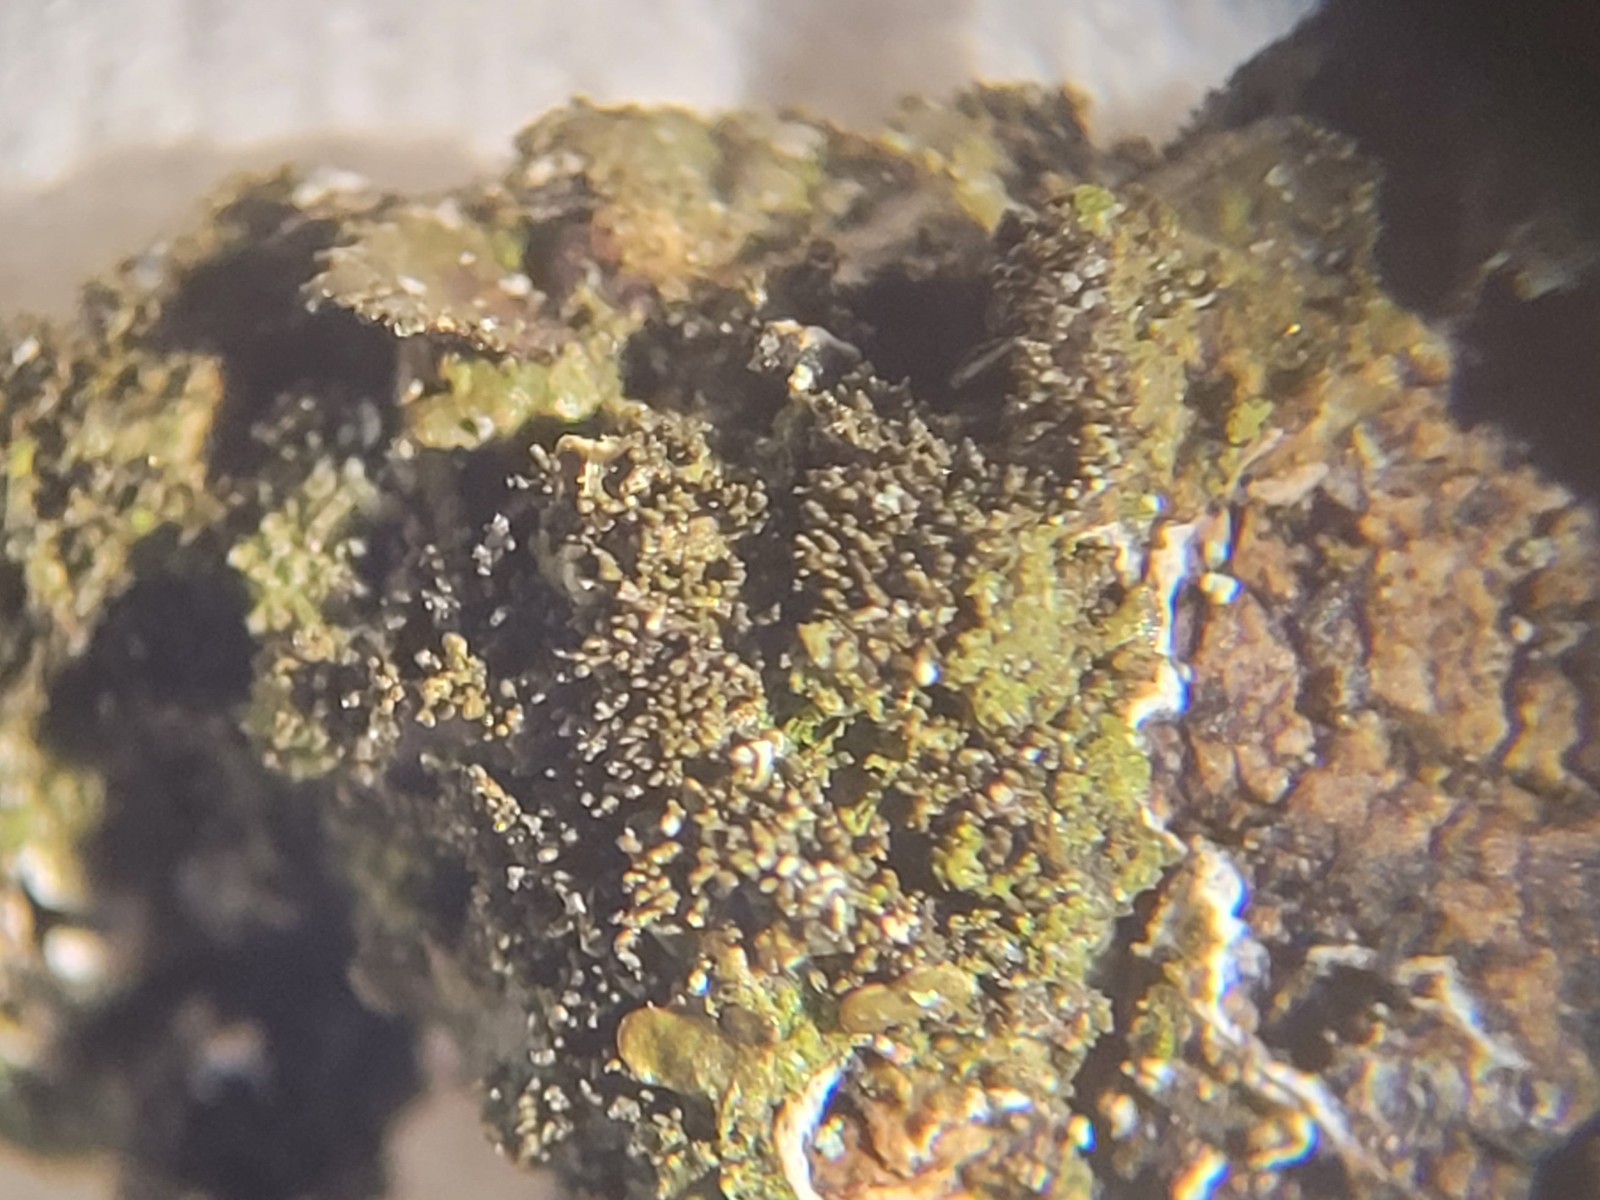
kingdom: Fungi
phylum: Ascomycota
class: Lecanoromycetes
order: Lecanorales
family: Parmeliaceae
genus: Melanohalea
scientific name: Melanohalea exasperatula
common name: kølle-skållav
